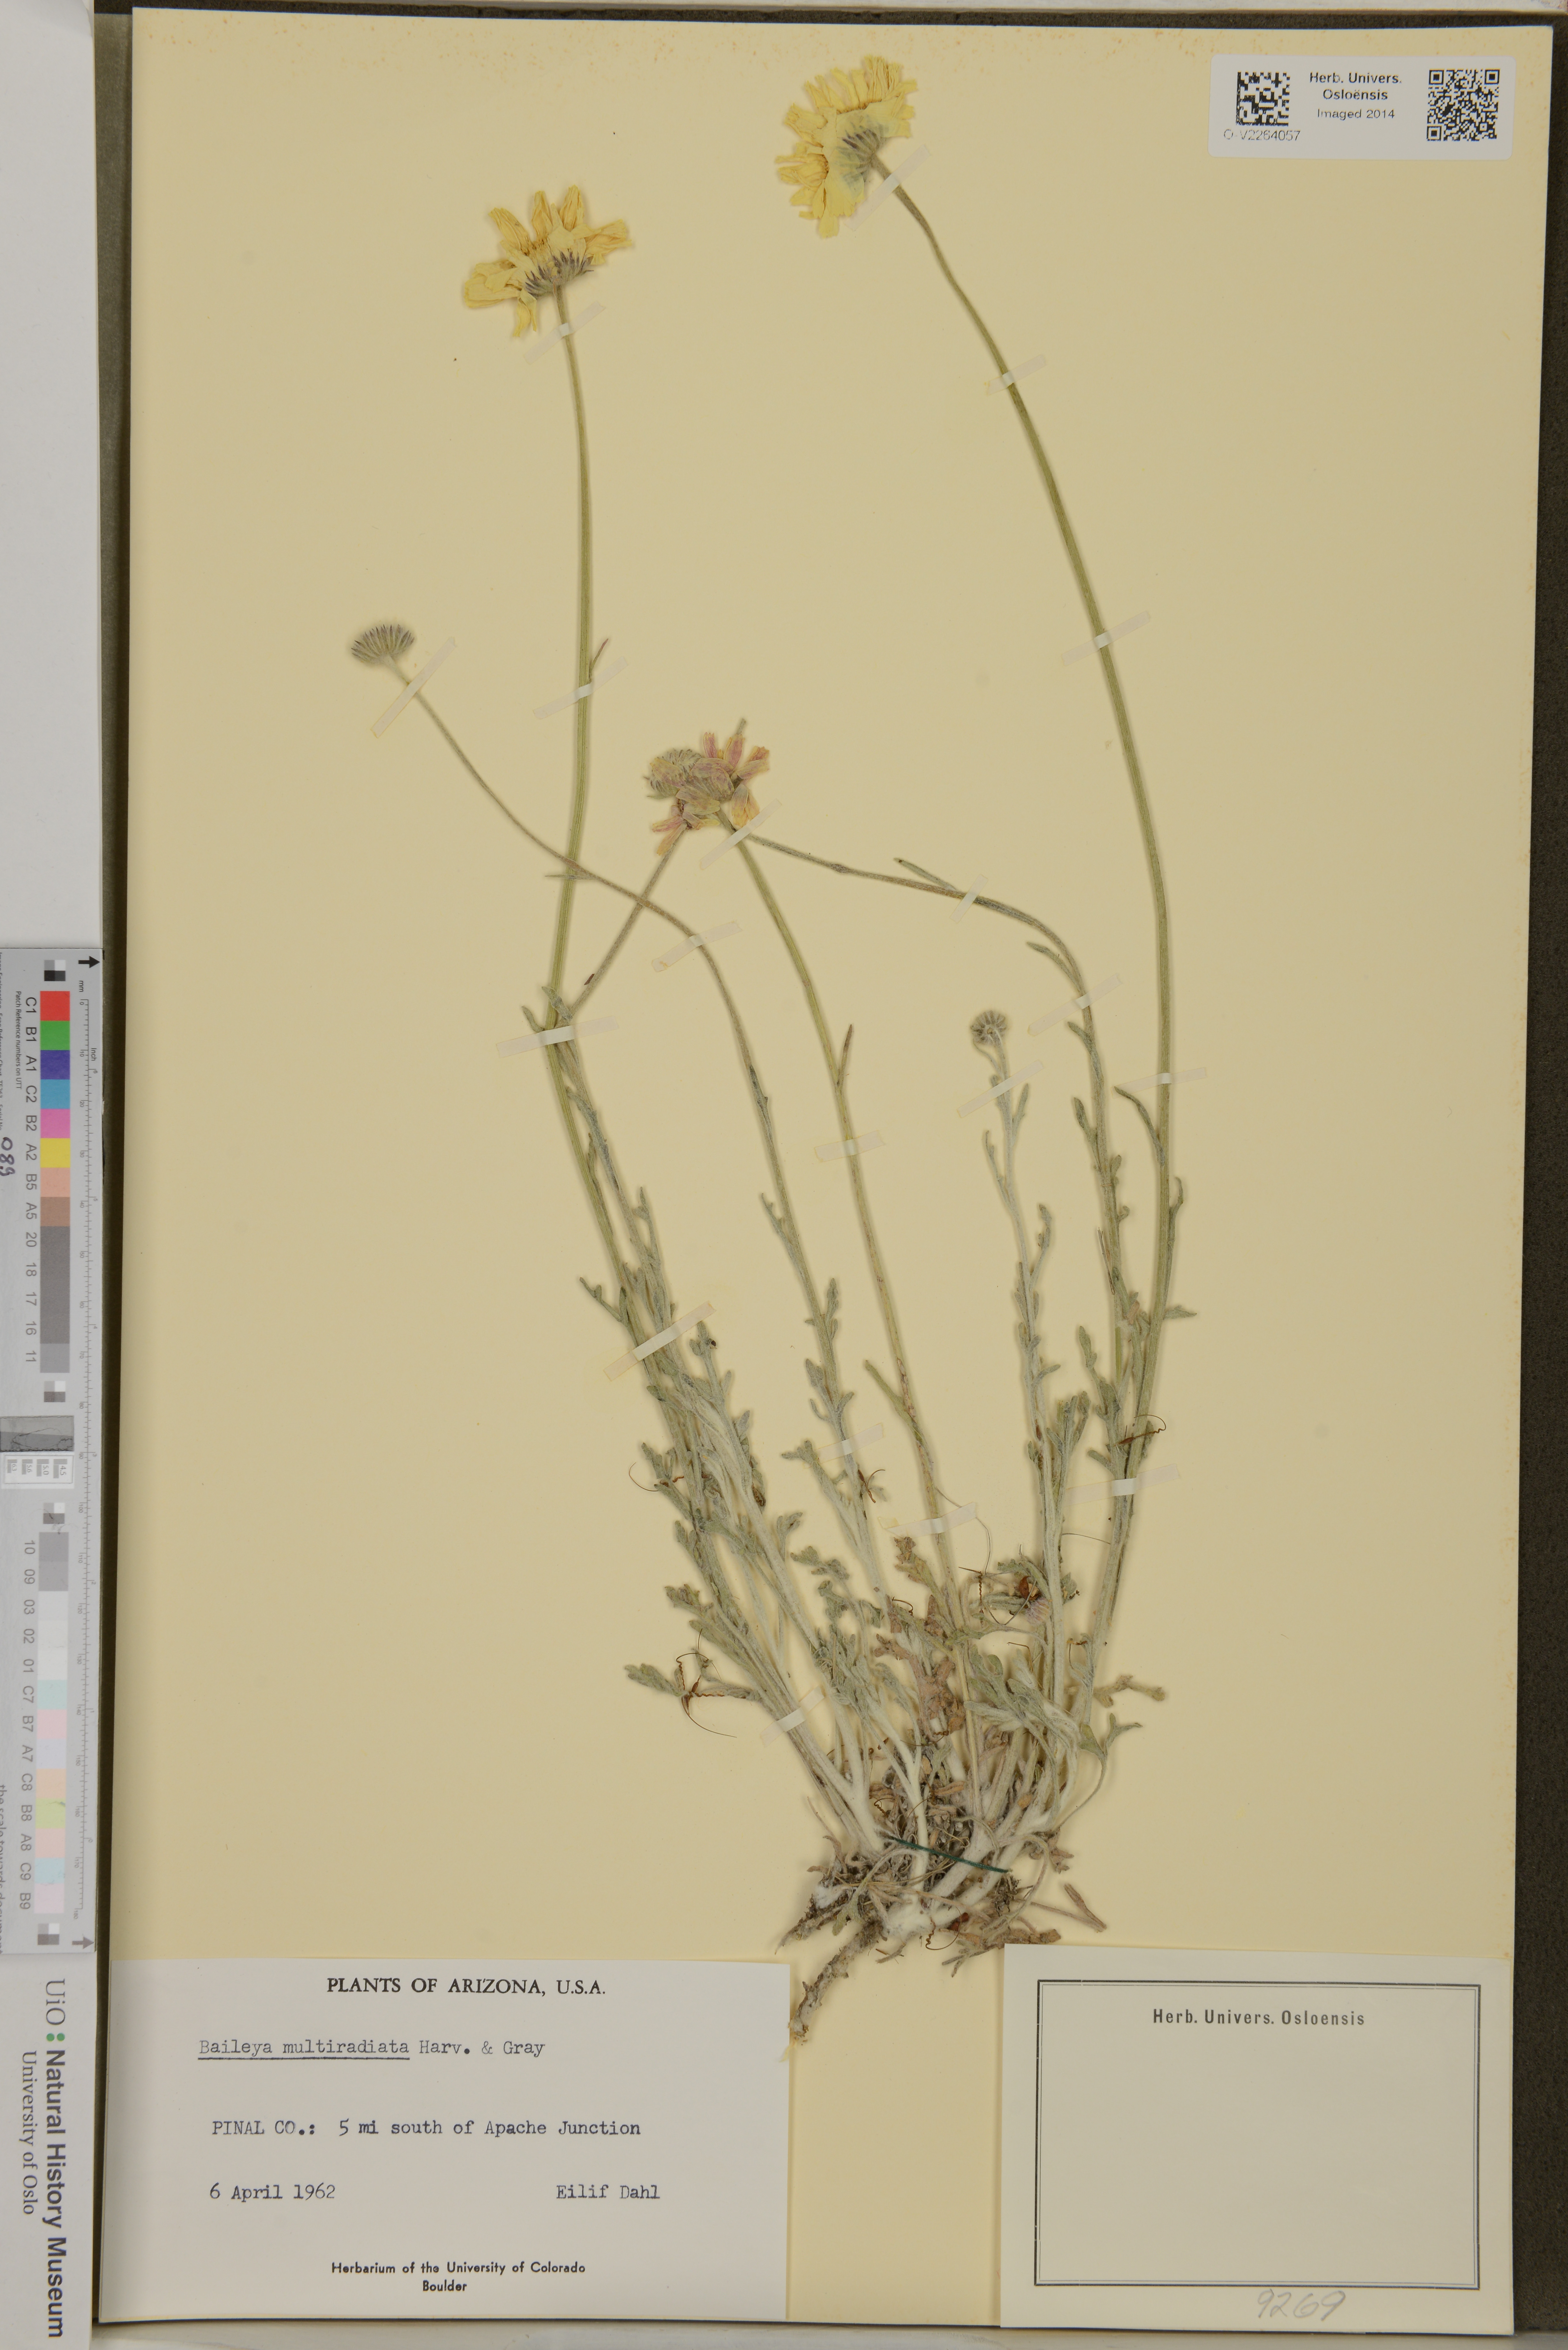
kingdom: Plantae
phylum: Tracheophyta
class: Magnoliopsida
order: Asterales
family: Asteraceae
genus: Baileya
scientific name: Baileya multiradiata
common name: Desert-marigold
